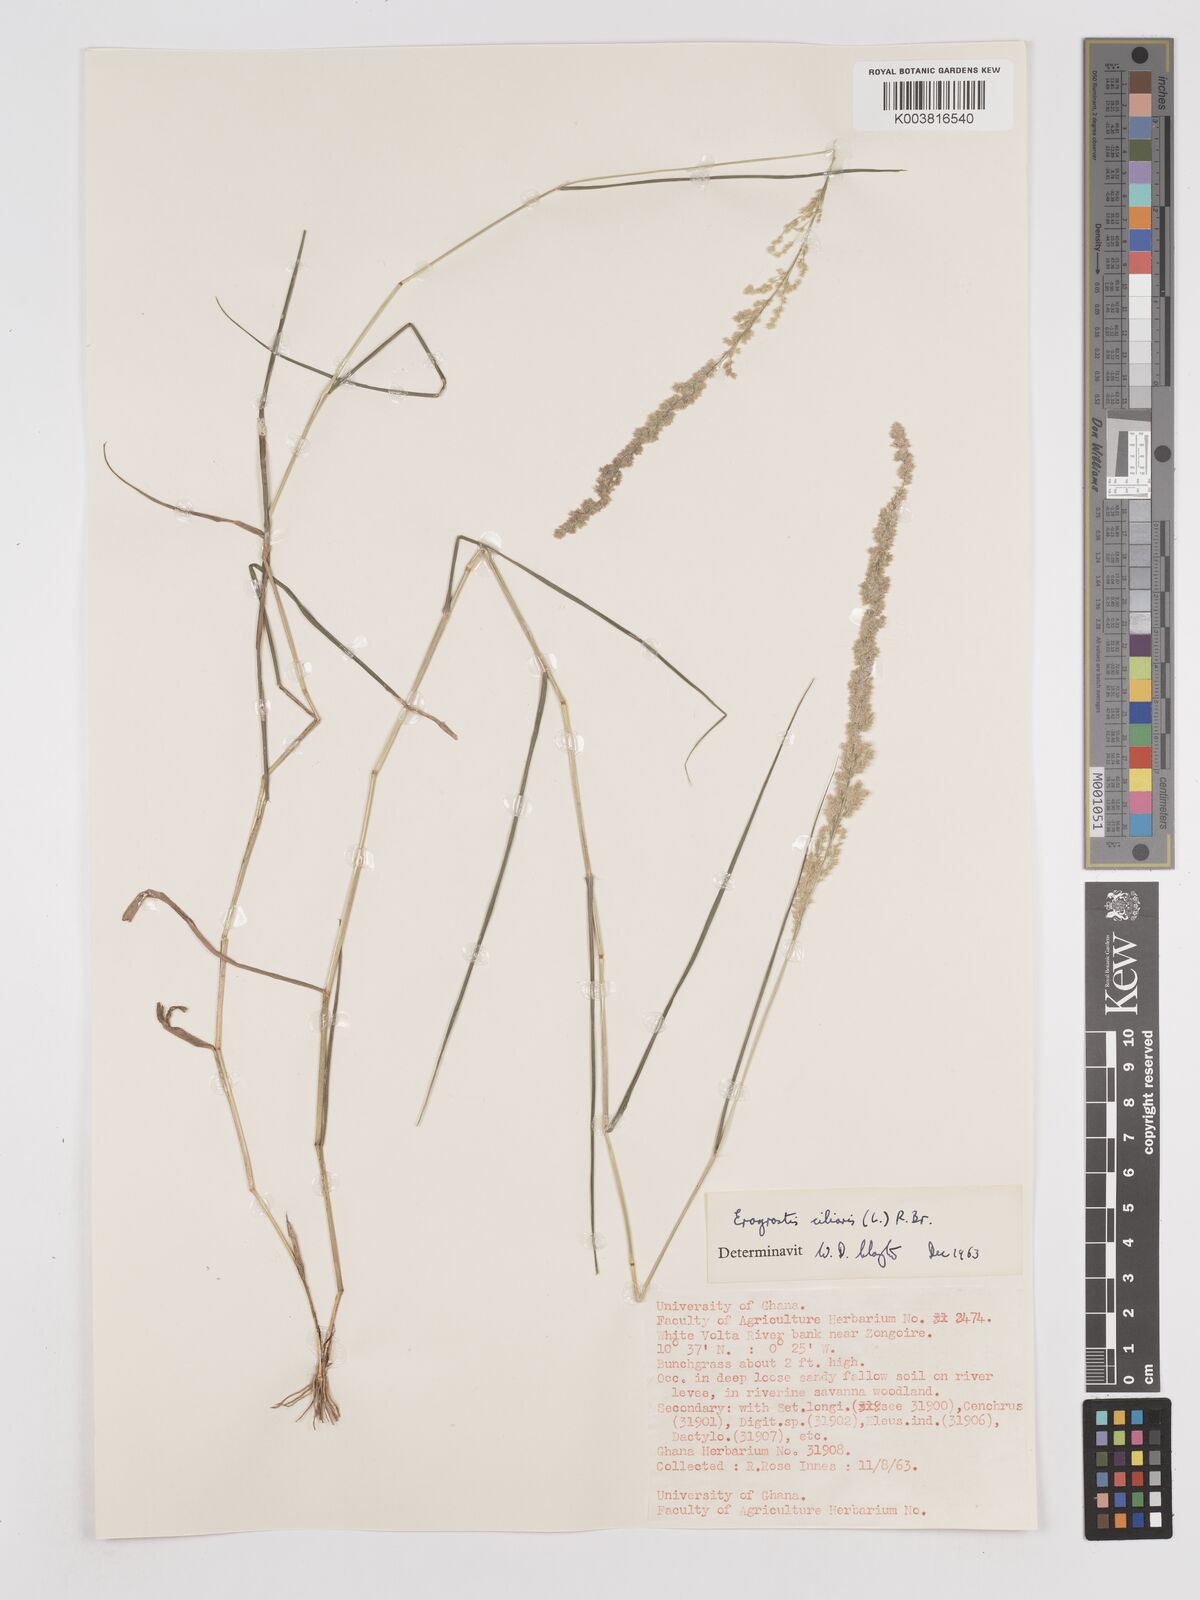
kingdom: Plantae
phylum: Tracheophyta
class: Liliopsida
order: Poales
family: Poaceae
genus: Eragrostis
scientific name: Eragrostis ciliaris
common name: Gophertail lovegrass
